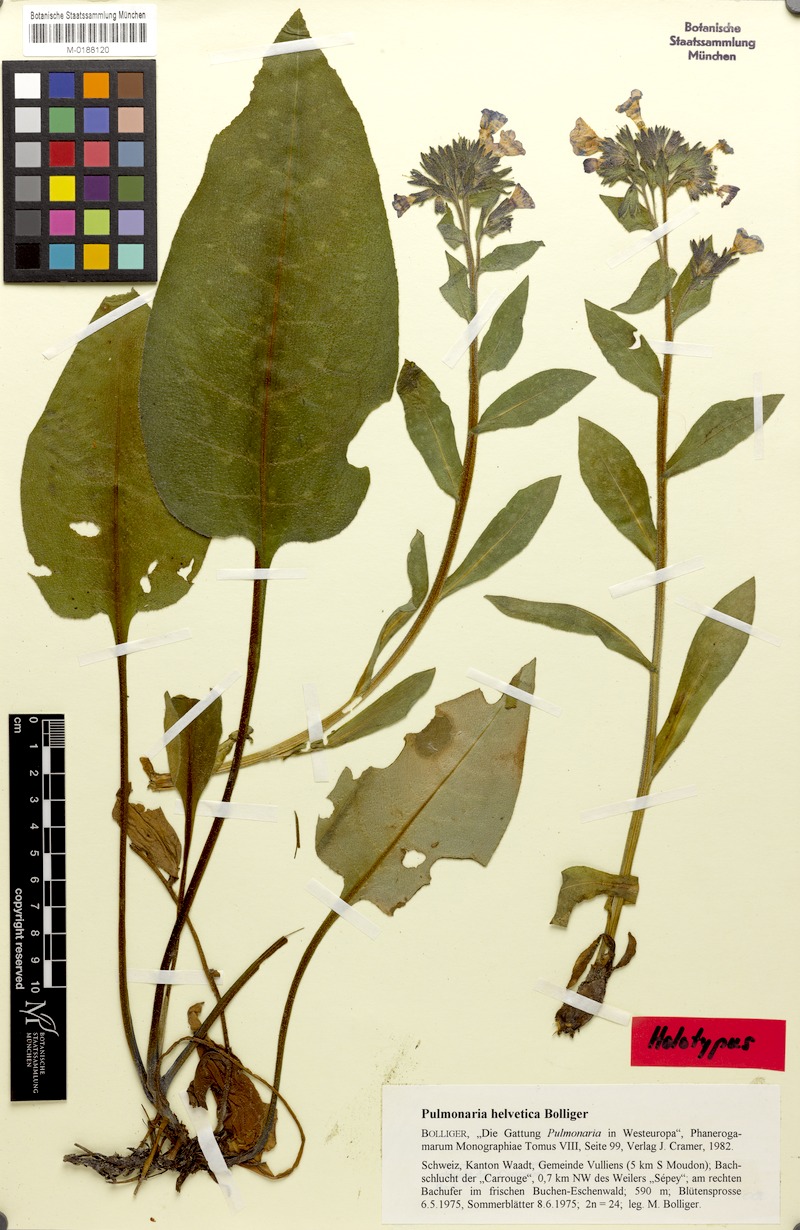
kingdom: Plantae
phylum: Tracheophyta
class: Magnoliopsida
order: Boraginales
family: Boraginaceae
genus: Pulmonaria
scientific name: Pulmonaria helvetica
